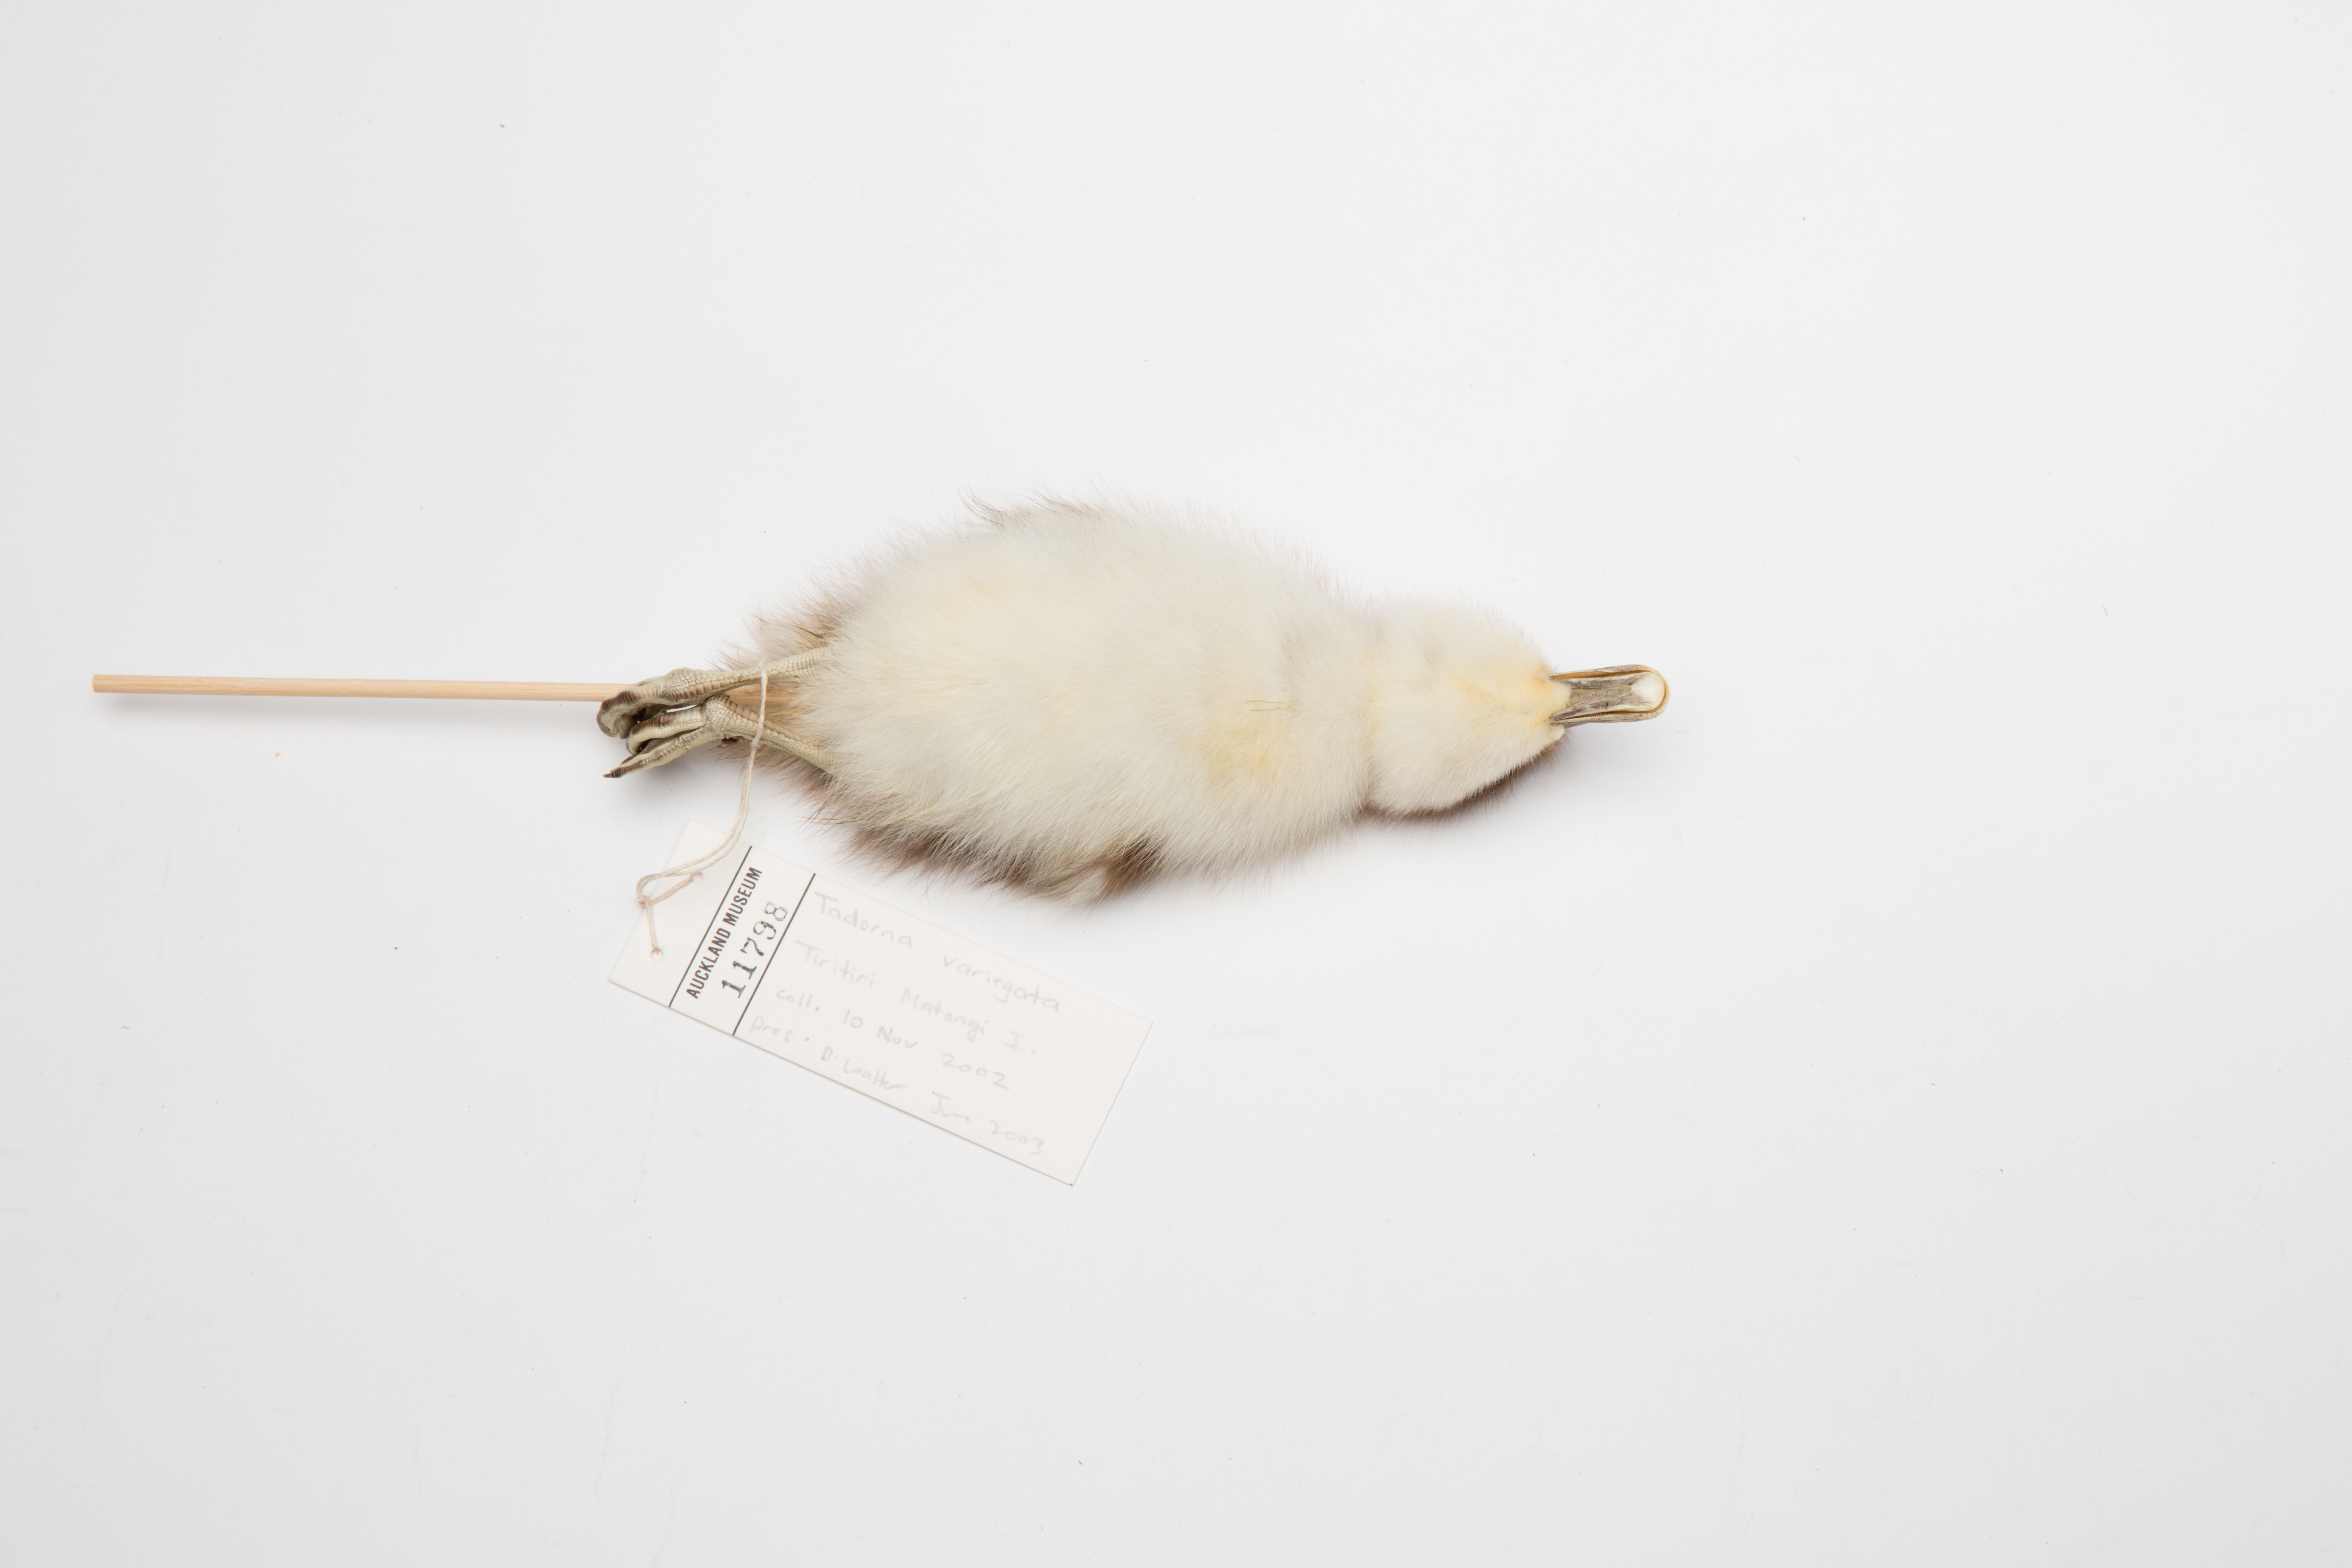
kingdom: Animalia
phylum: Chordata
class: Aves
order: Anseriformes
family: Anatidae
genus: Tadorna
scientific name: Tadorna variegata
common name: Paradise shelduck
